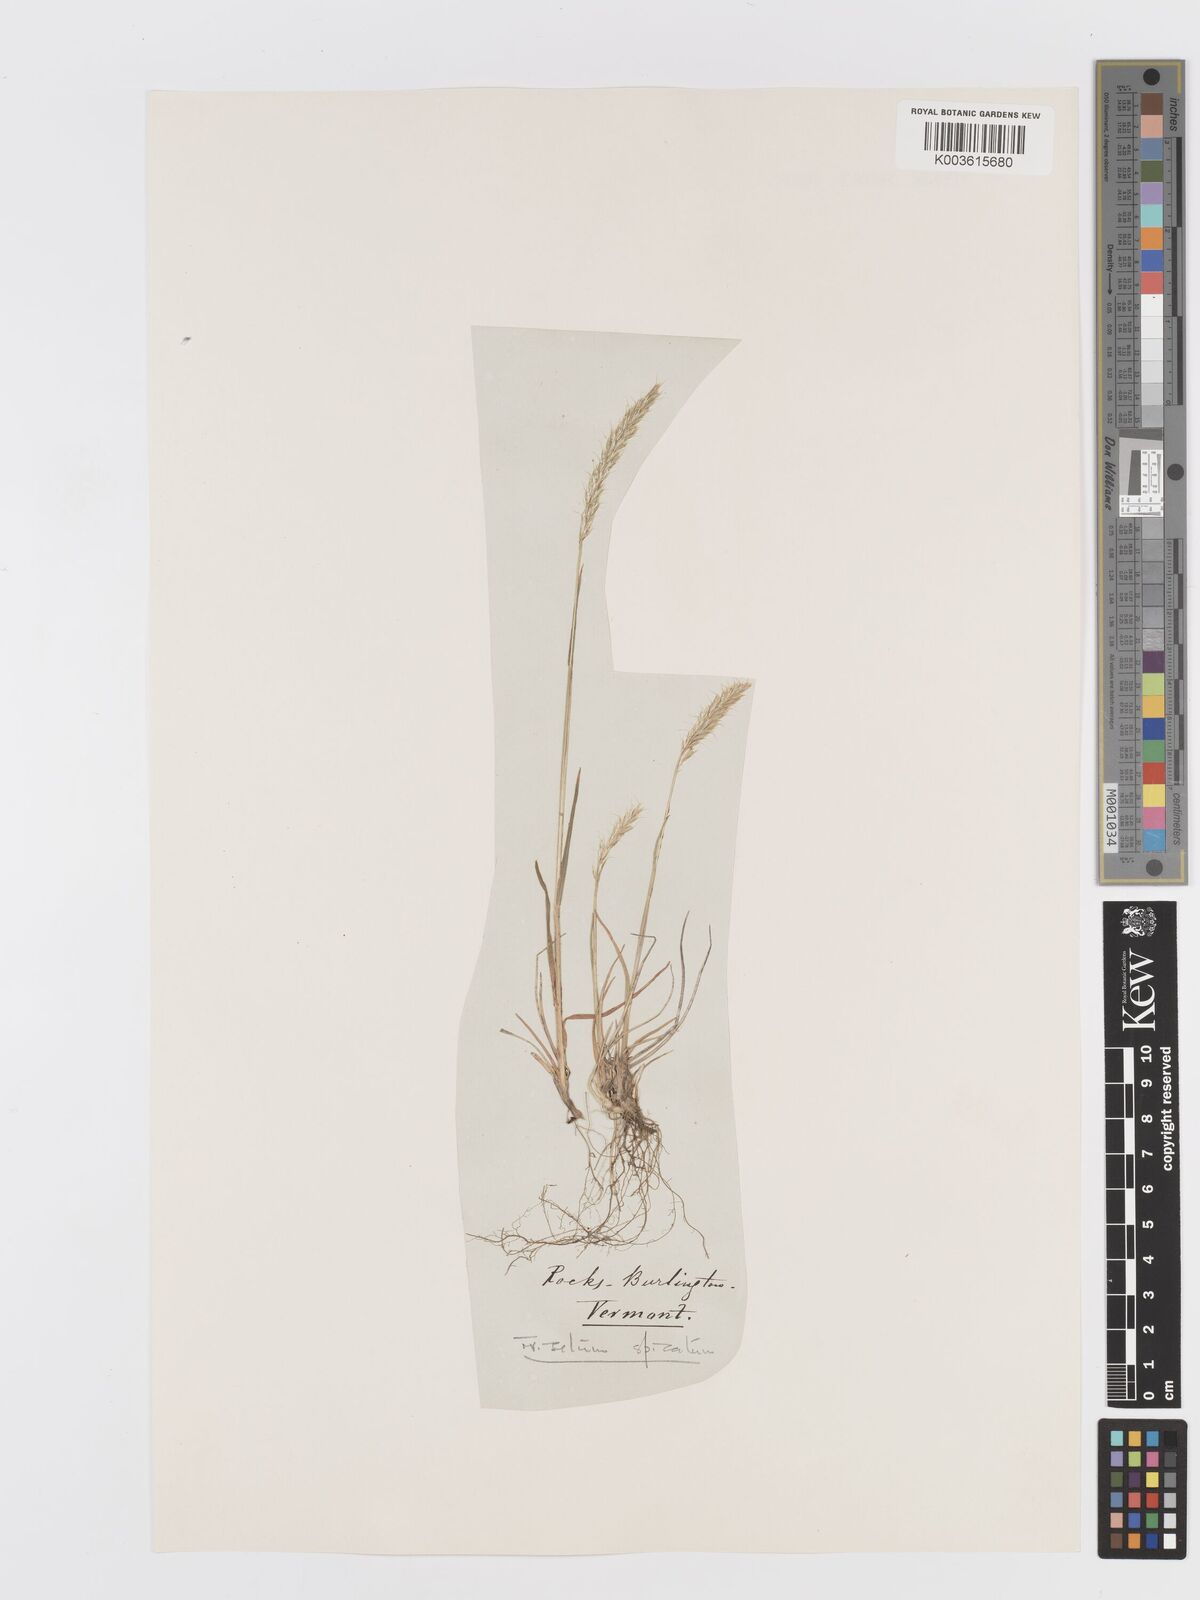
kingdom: Plantae
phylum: Tracheophyta
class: Liliopsida
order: Poales
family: Poaceae
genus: Koeleria
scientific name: Koeleria spicata
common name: Mountain trisetum
